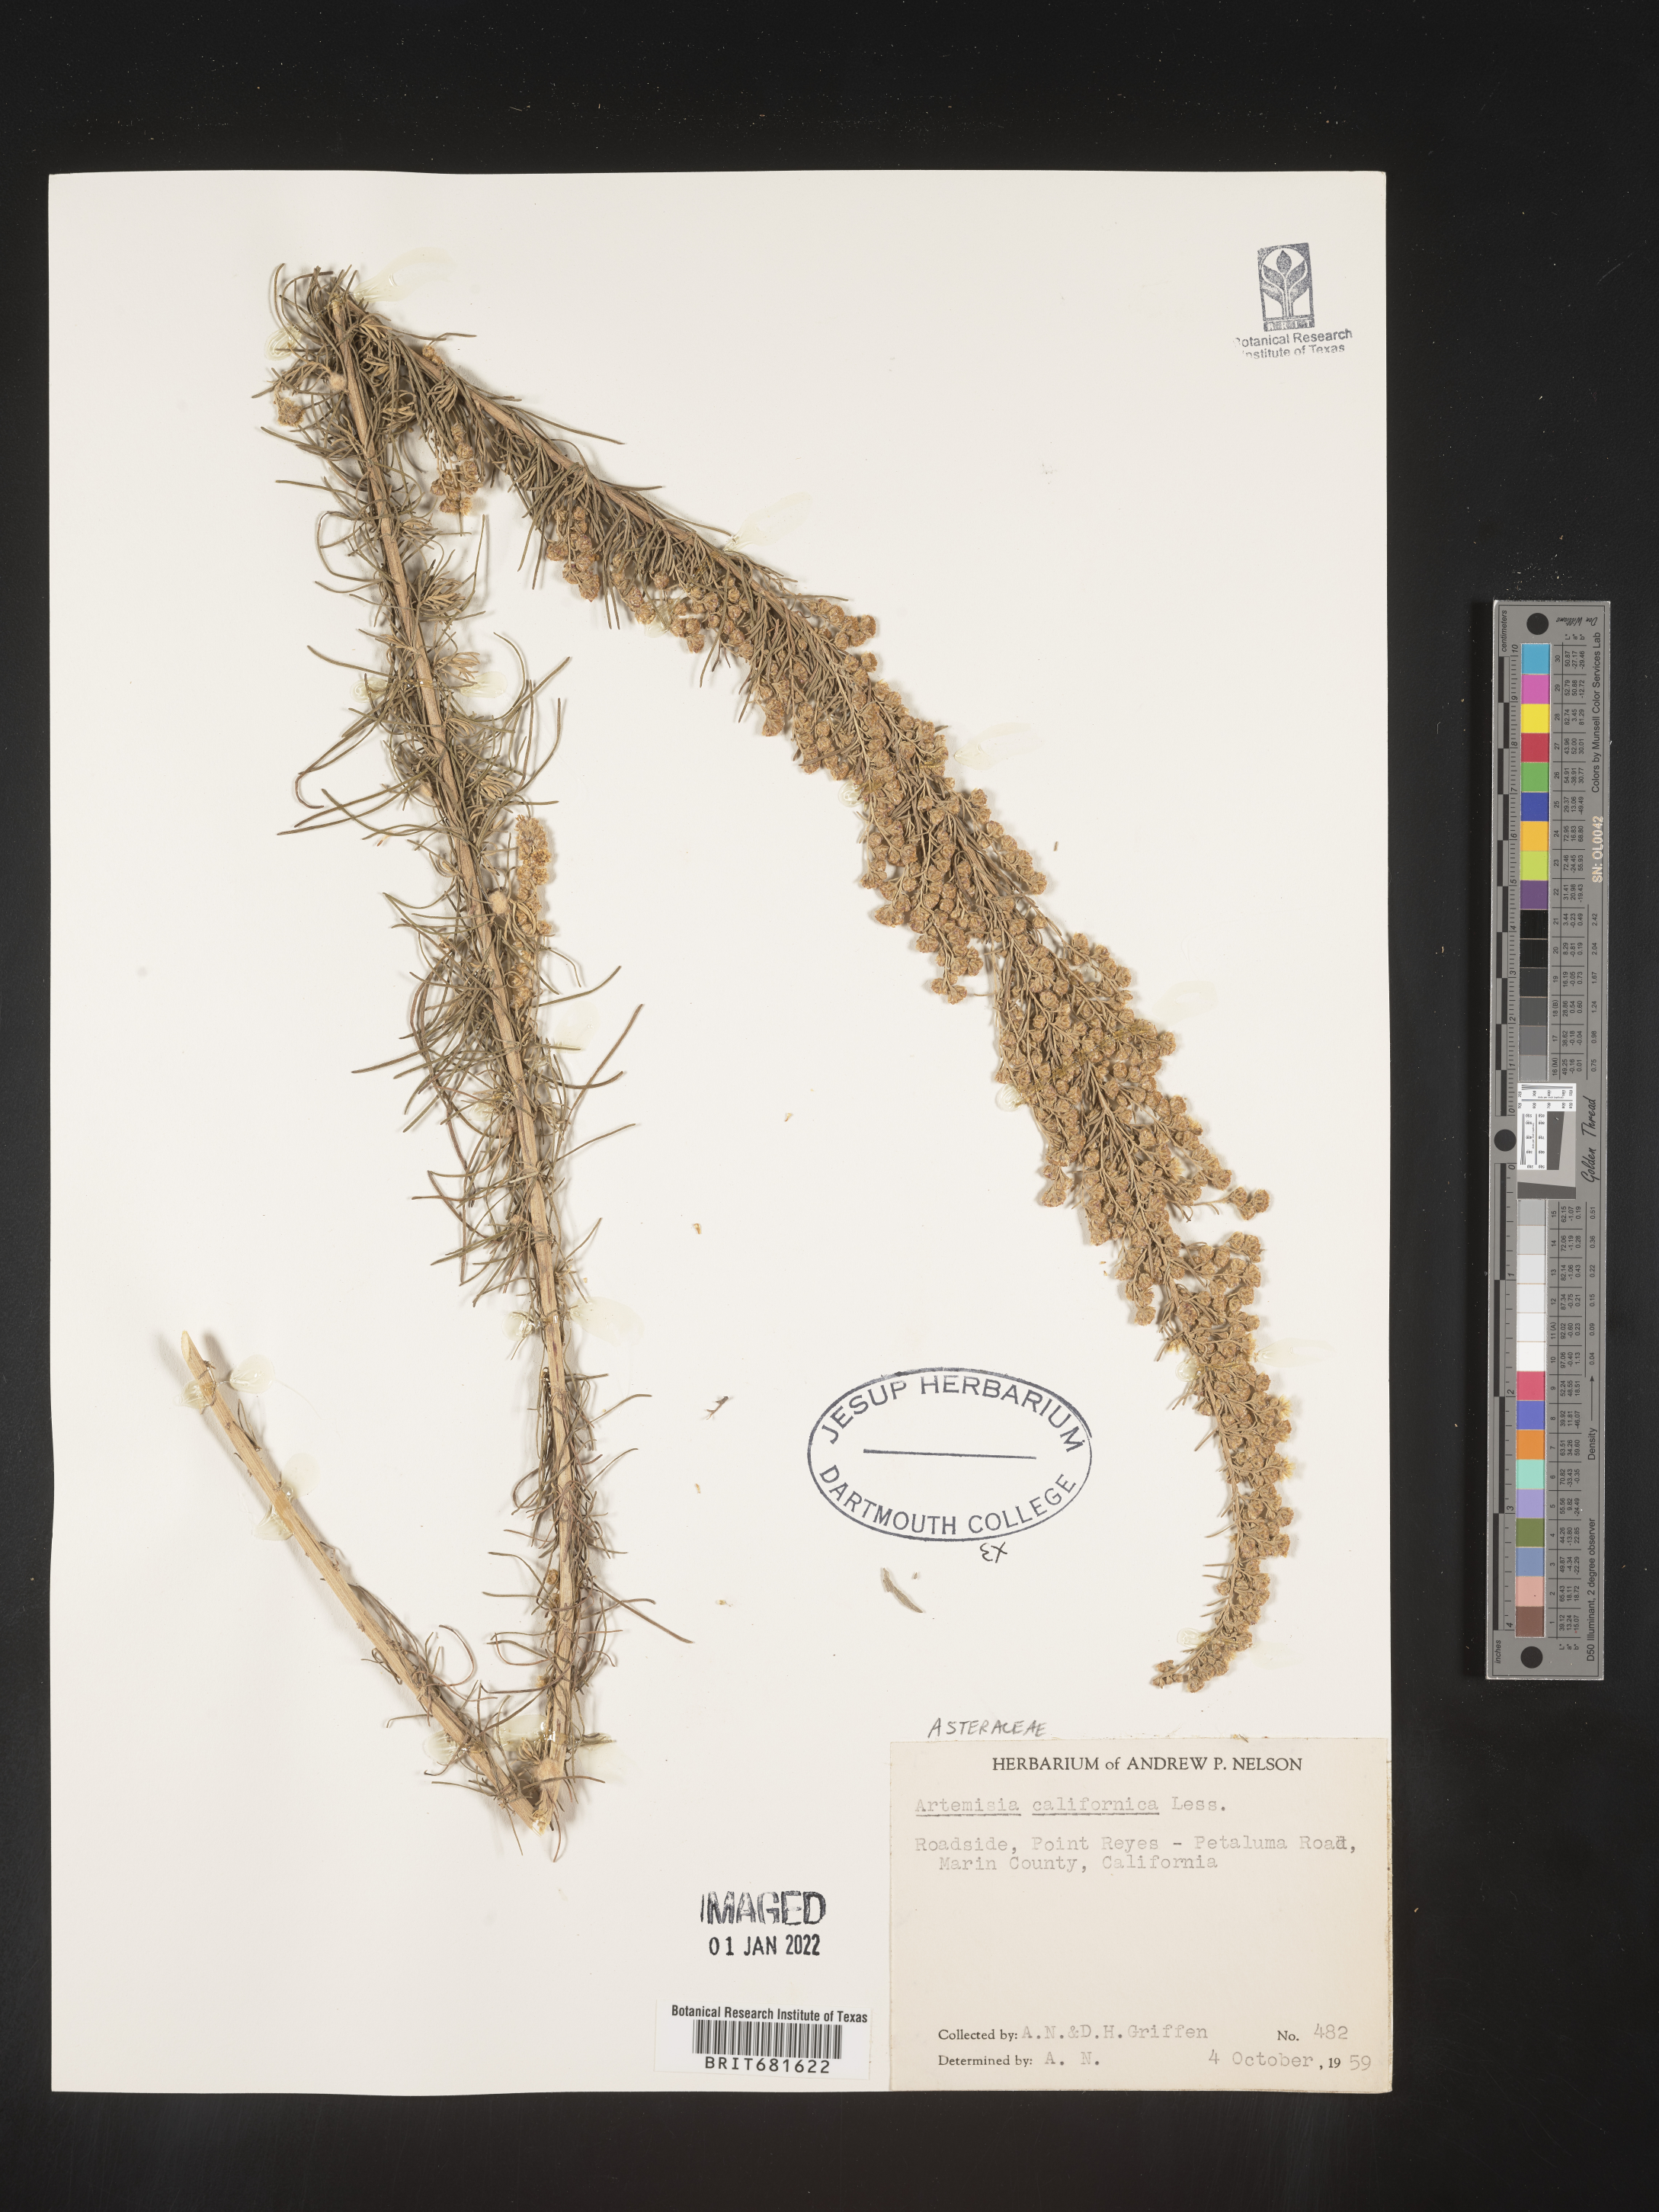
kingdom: Plantae
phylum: Tracheophyta
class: Magnoliopsida
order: Asterales
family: Asteraceae
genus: Artemisia
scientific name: Artemisia californica
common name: California sagebrush
